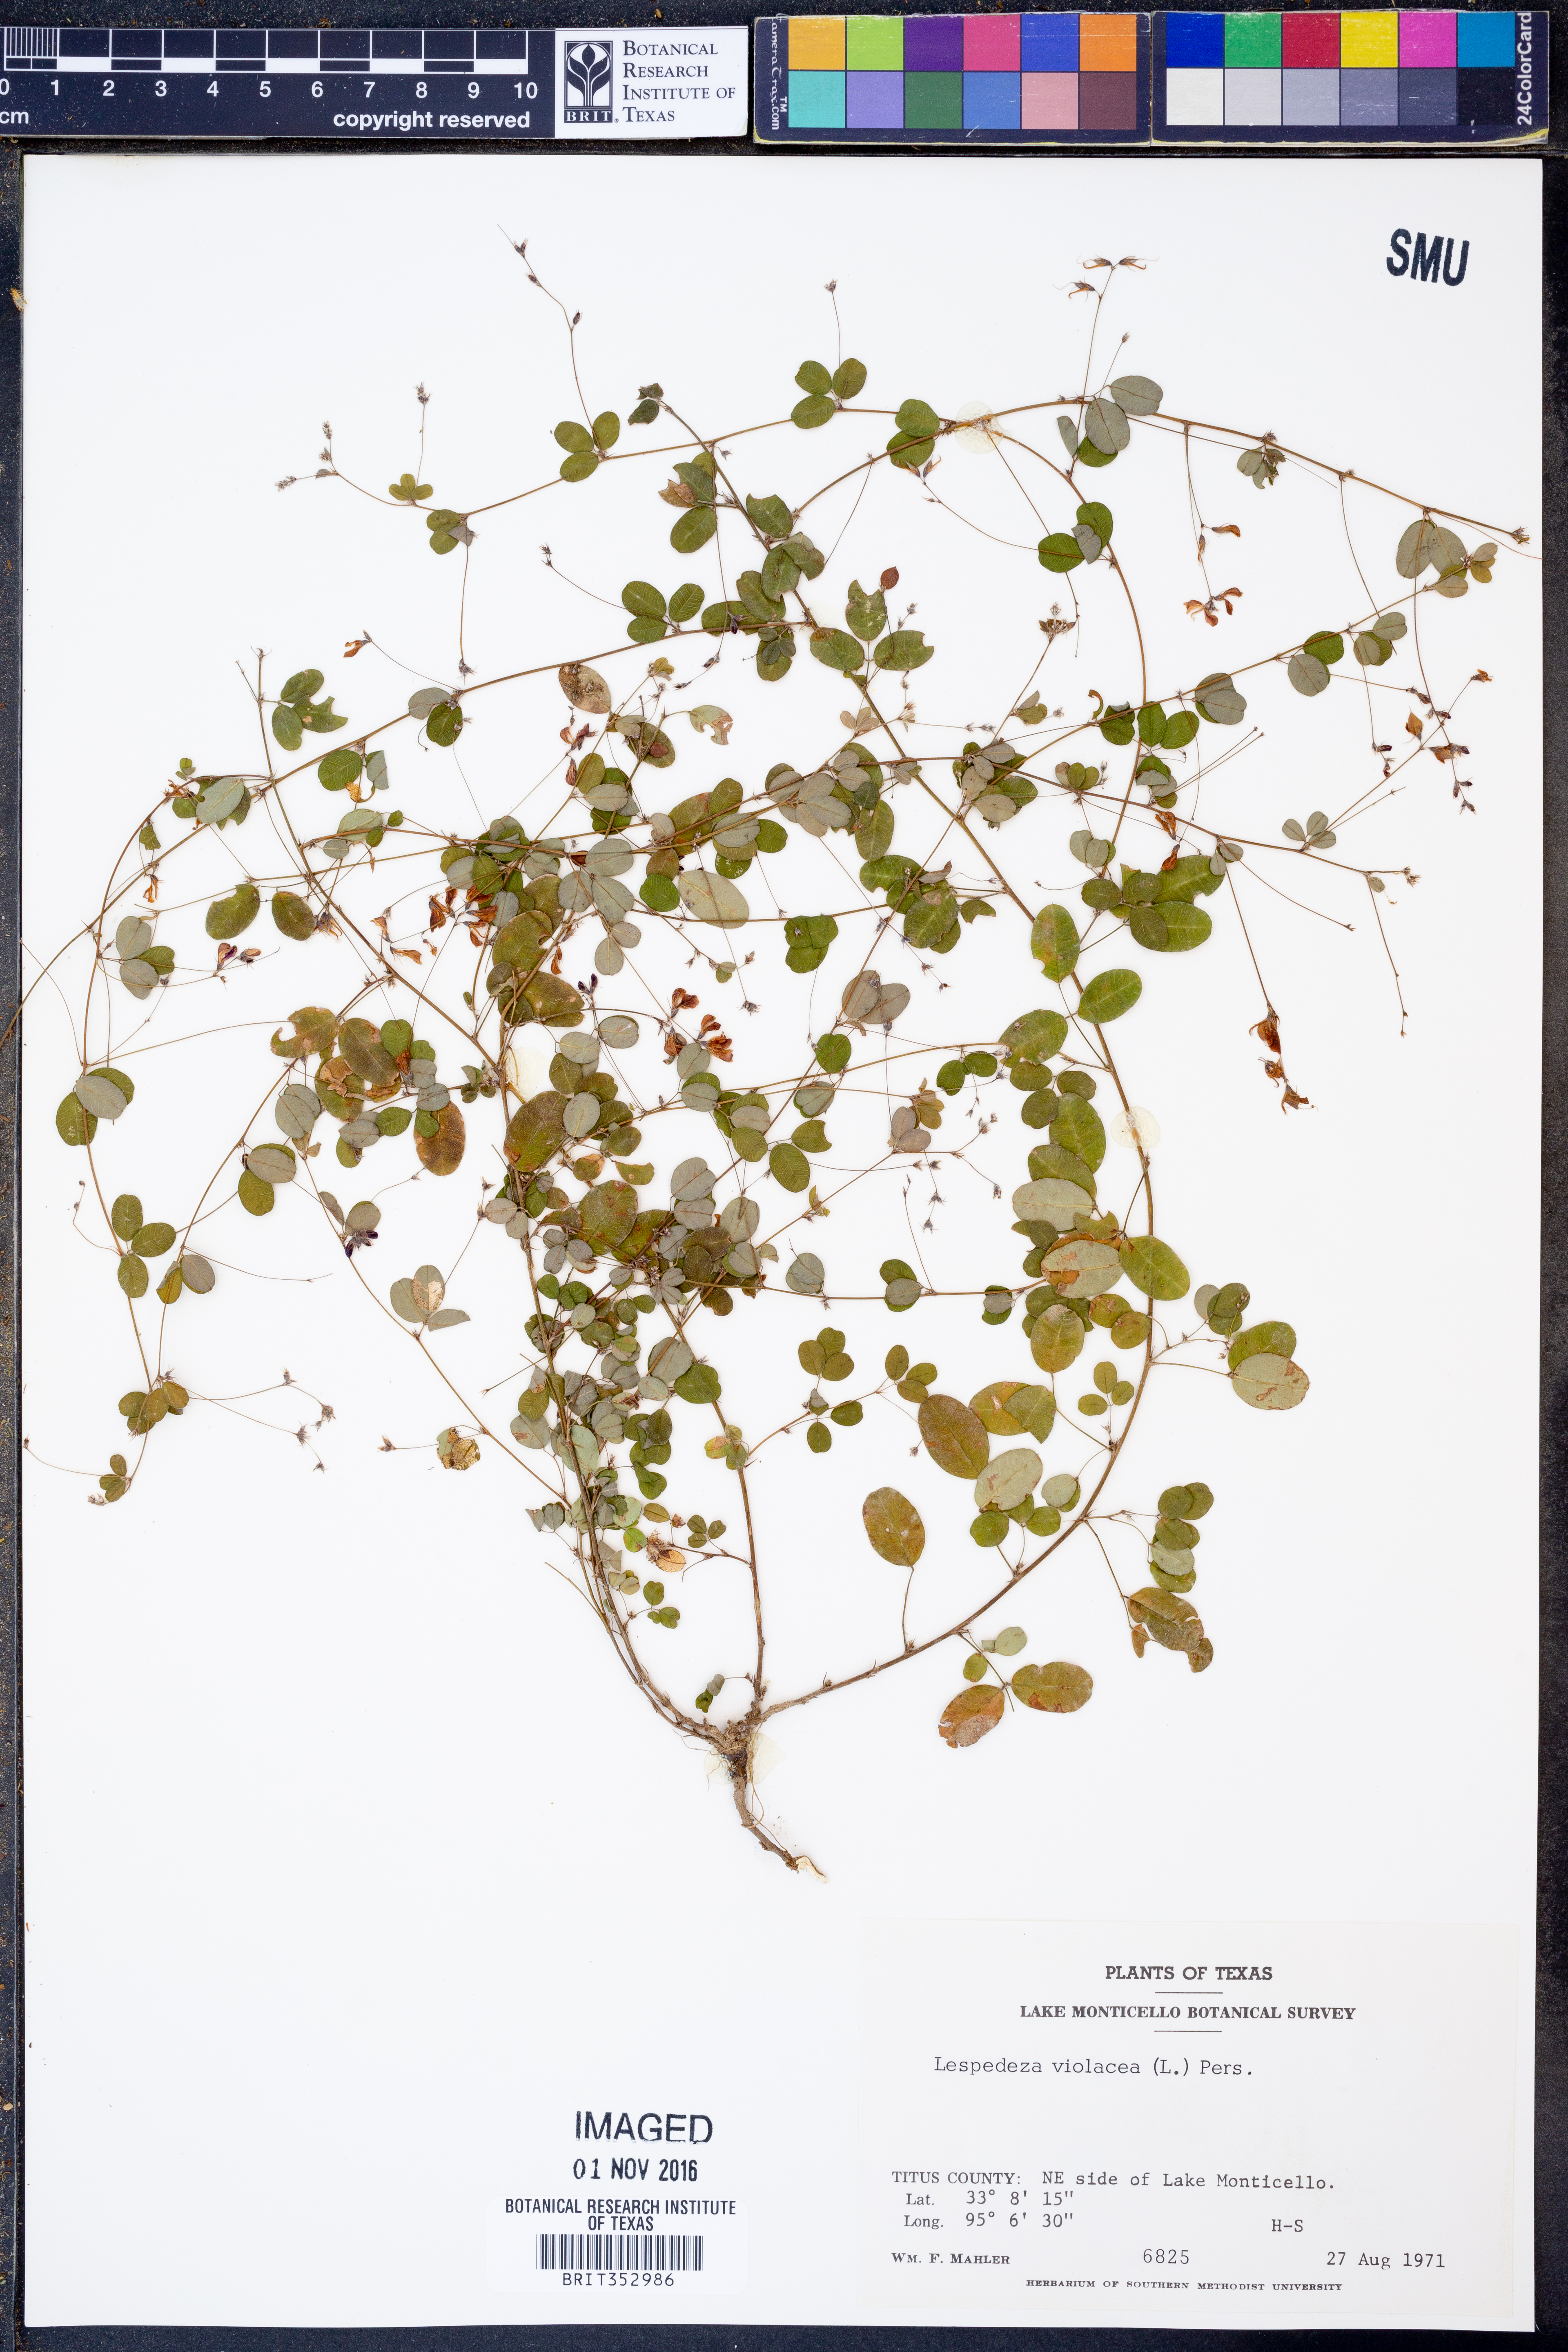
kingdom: Plantae
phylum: Tracheophyta
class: Magnoliopsida
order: Fabales
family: Fabaceae
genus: Lespedeza
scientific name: Lespedeza violacea
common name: Wand bush-clover
